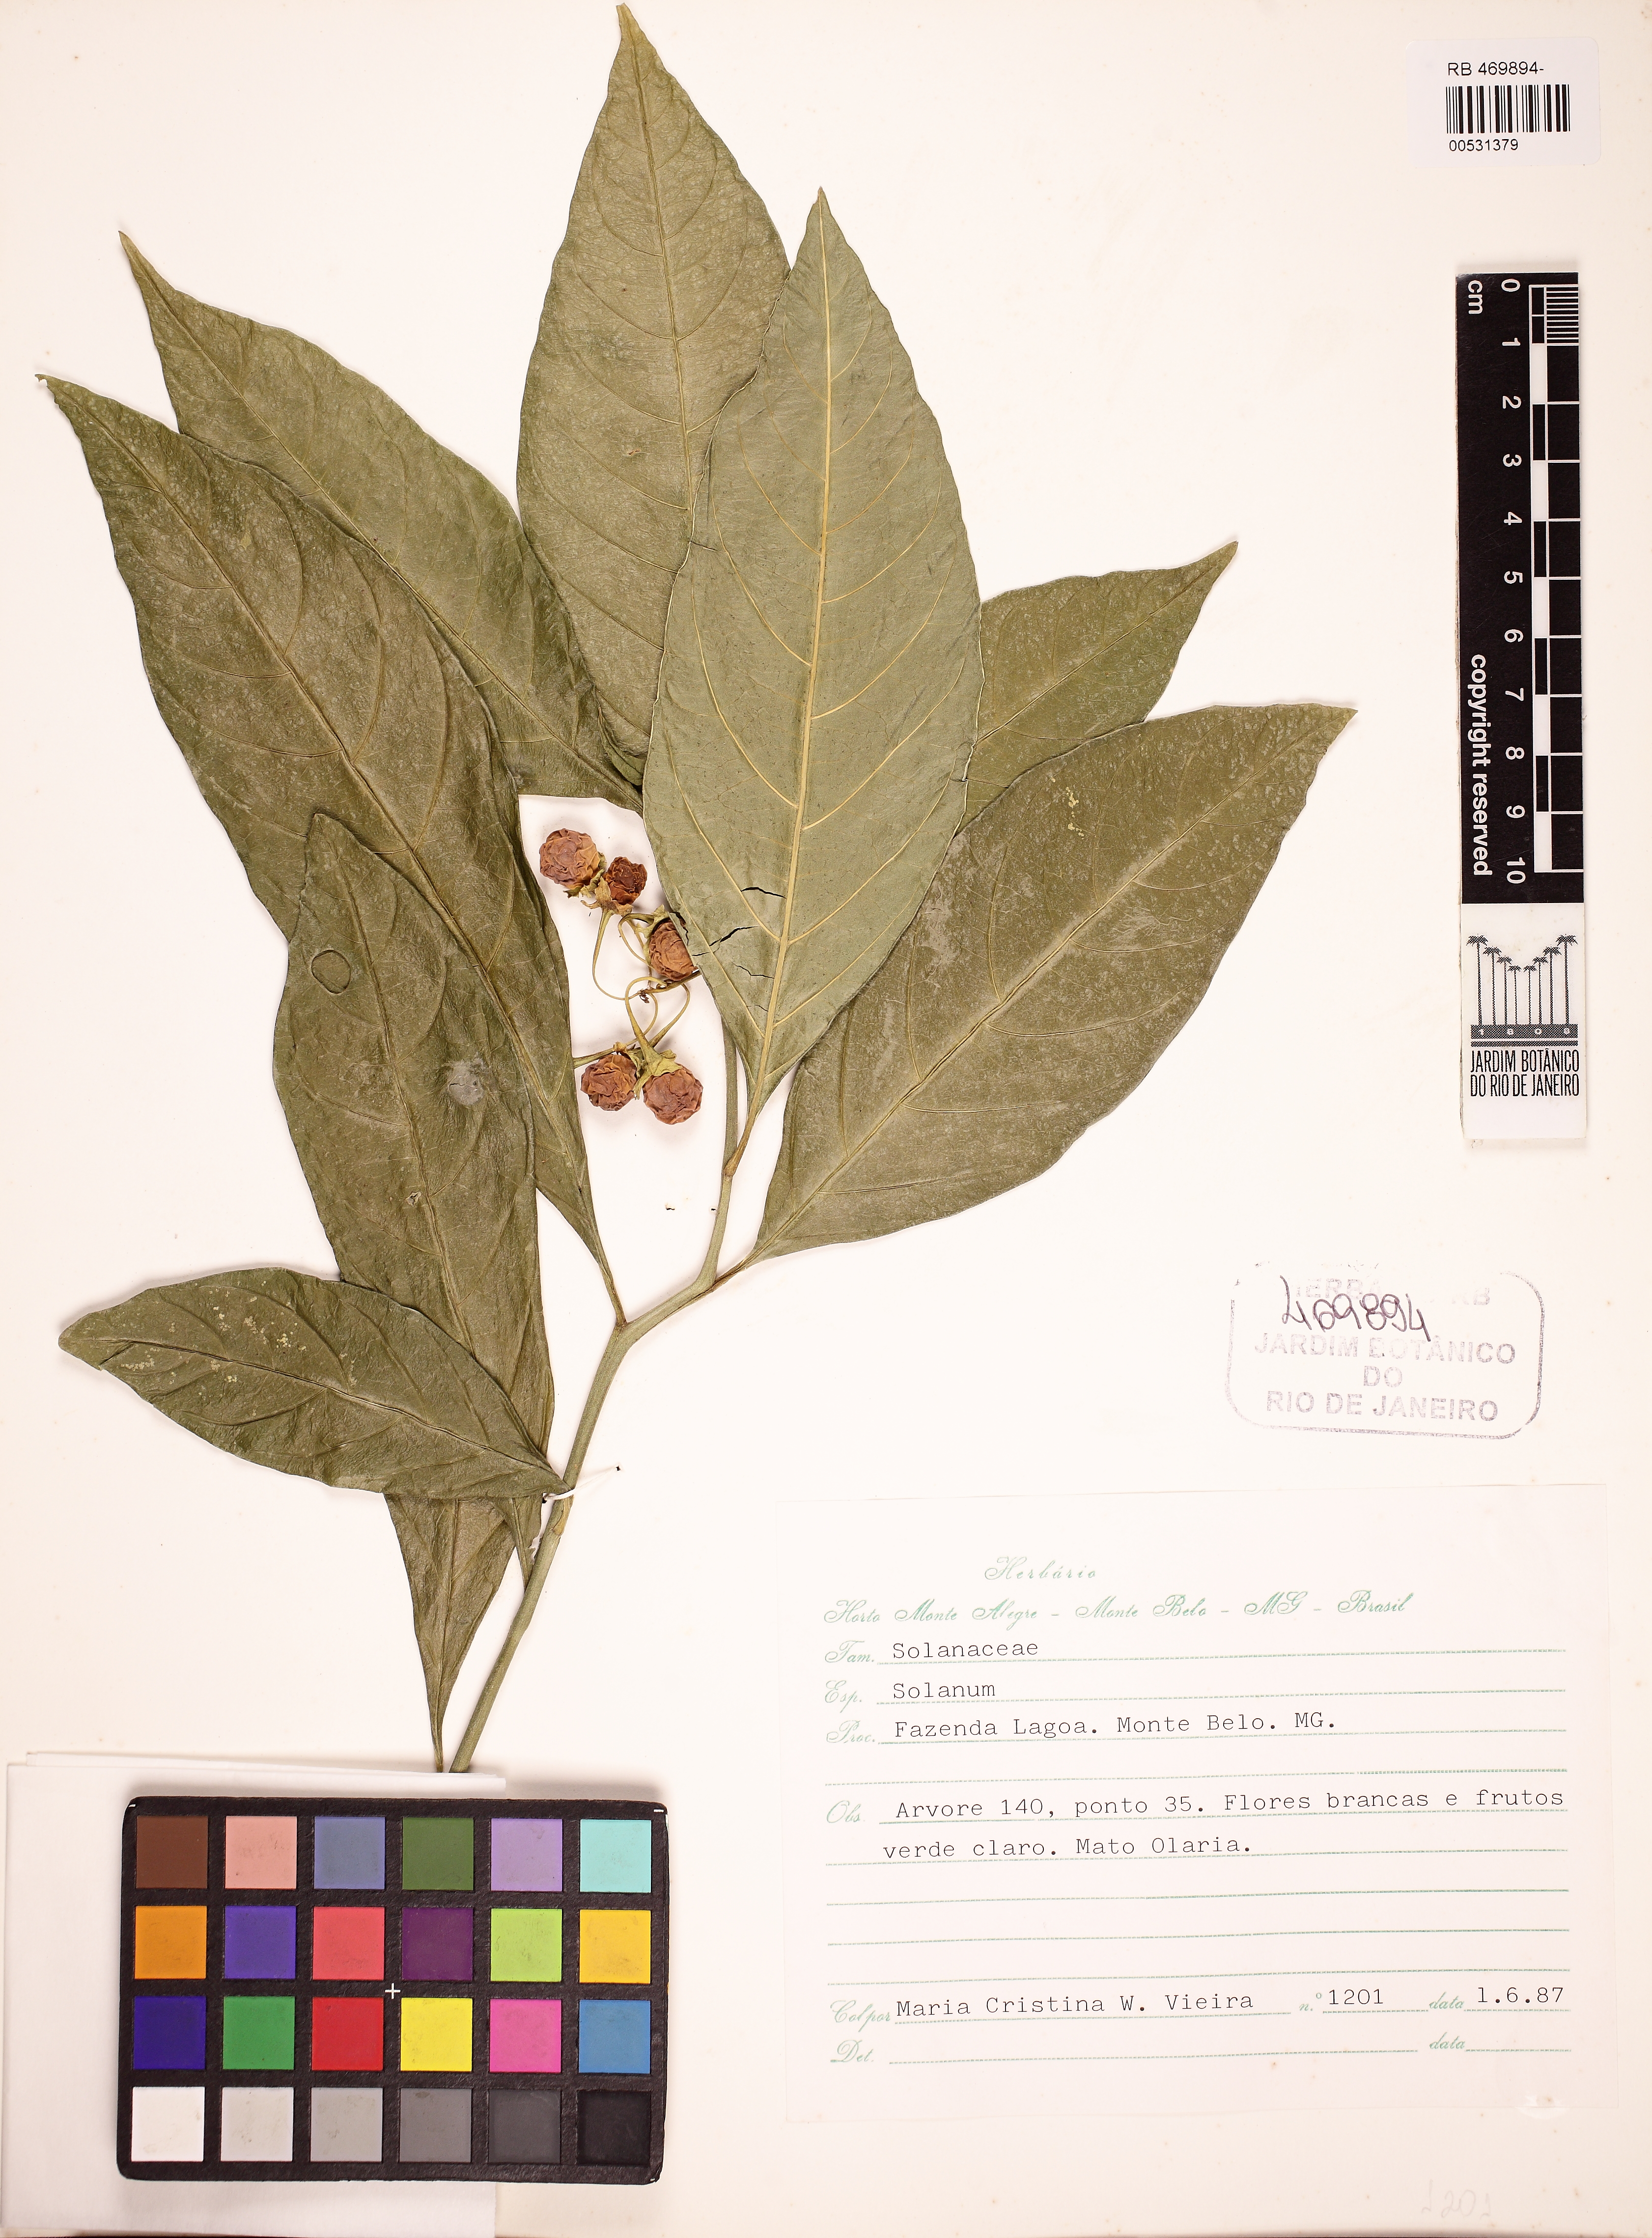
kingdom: Plantae
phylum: Tracheophyta
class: Magnoliopsida
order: Solanales
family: Solanaceae
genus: Solanum
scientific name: Solanum warmingii
